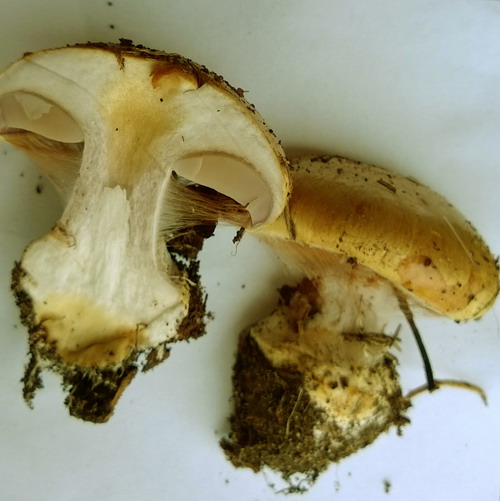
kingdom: Fungi
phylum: Basidiomycota
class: Agaricomycetes
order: Agaricales
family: Cortinariaceae
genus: Cortinarius
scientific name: Cortinarius anserinus
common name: bøge-slørhat
